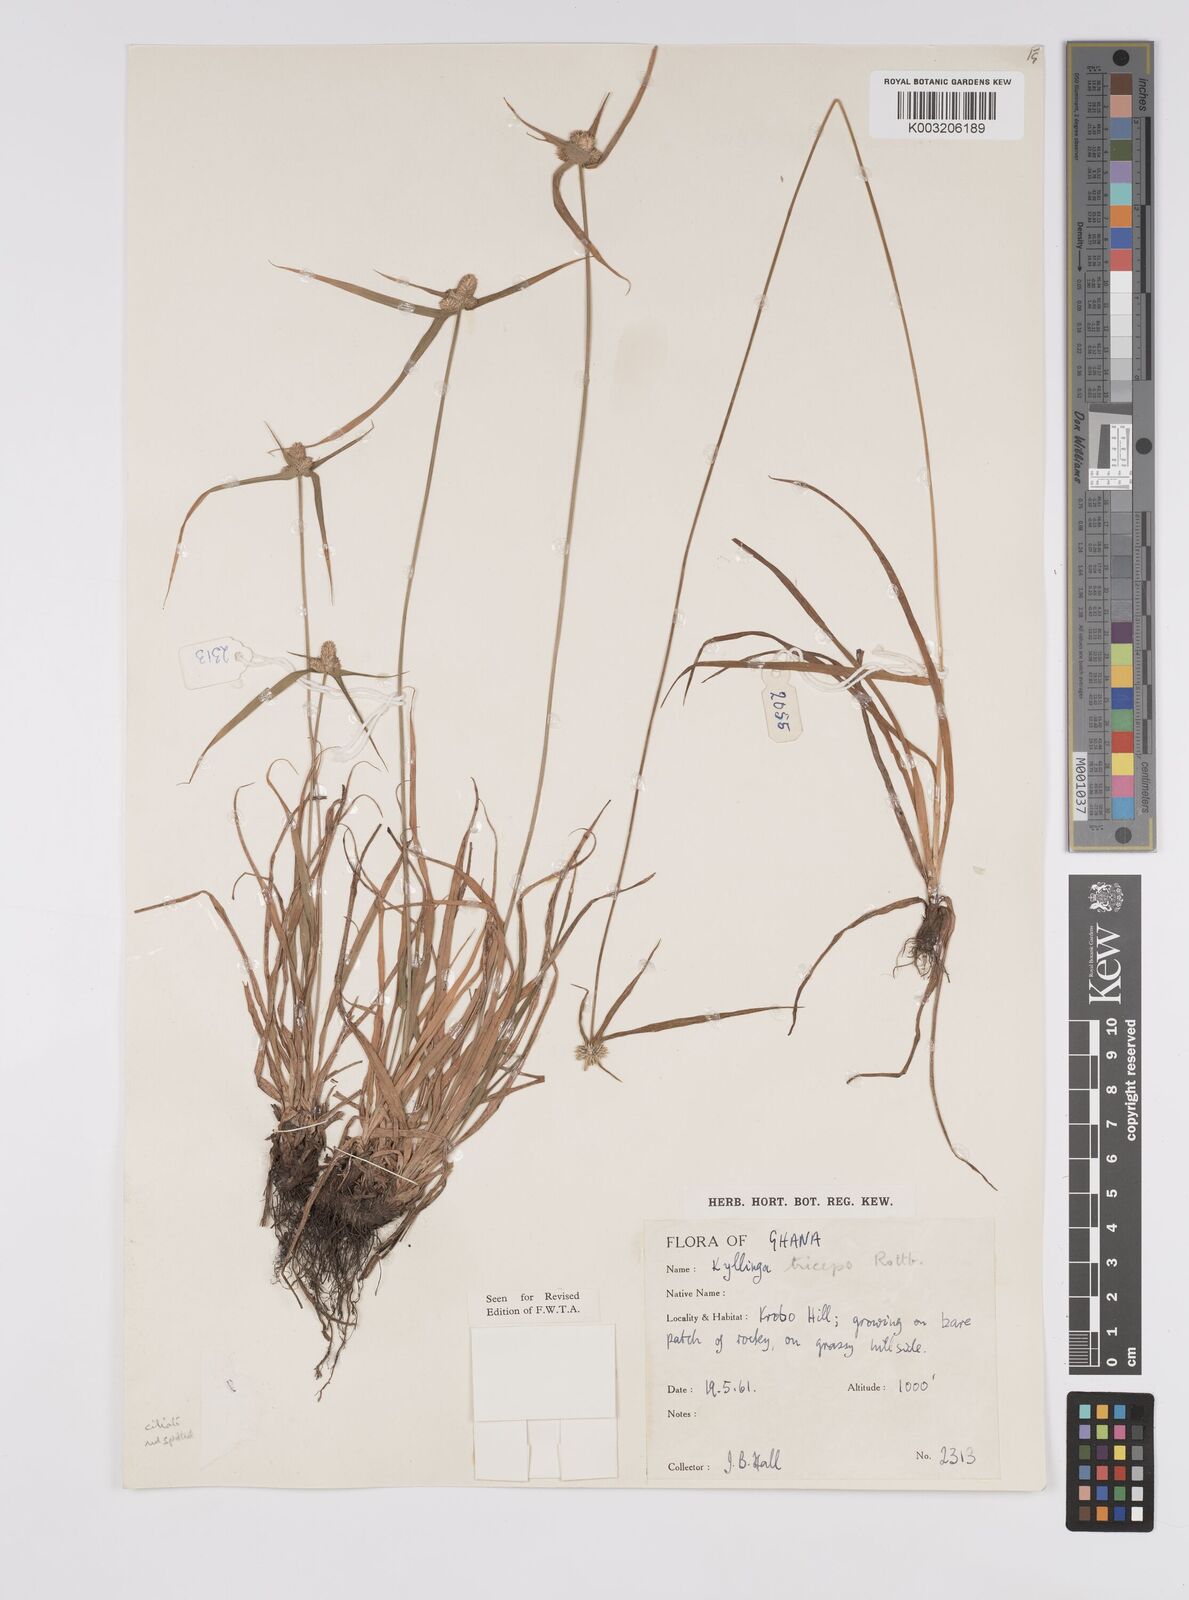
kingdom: Plantae
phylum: Tracheophyta
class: Liliopsida
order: Poales
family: Cyperaceae
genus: Cyperus
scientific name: Cyperus
